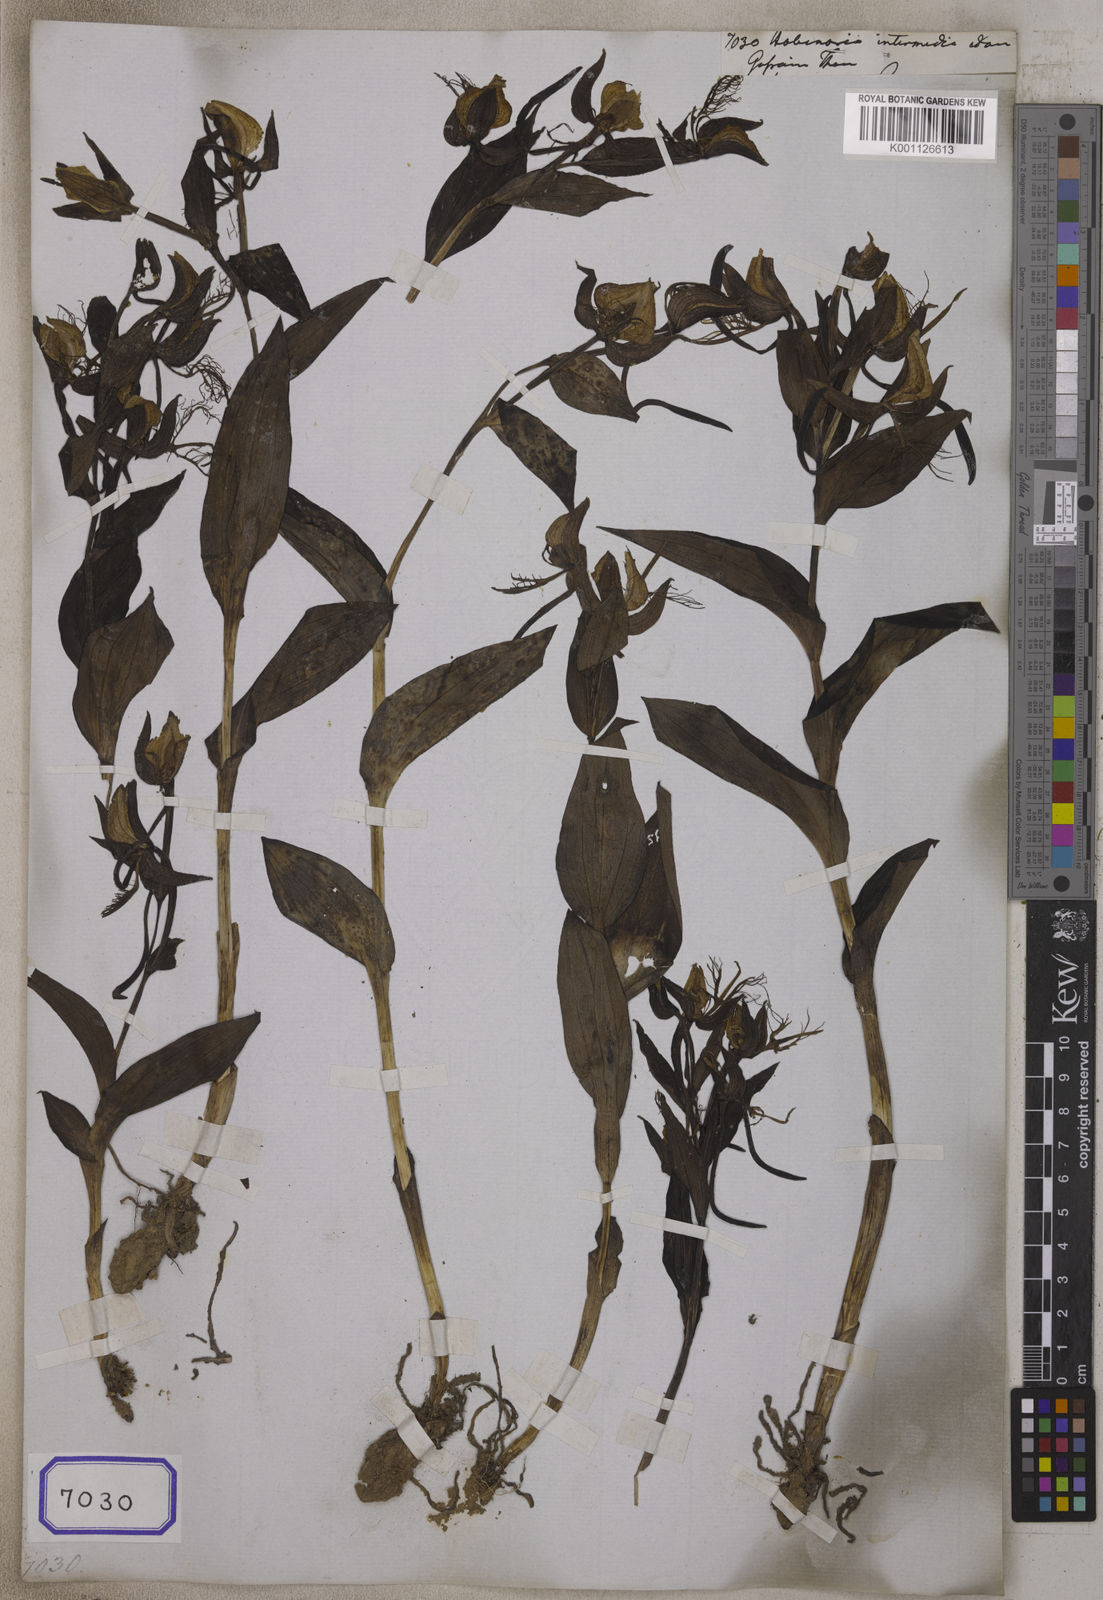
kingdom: Plantae
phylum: Tracheophyta
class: Liliopsida
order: Asparagales
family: Orchidaceae
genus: Habenaria
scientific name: Habenaria intermedia
